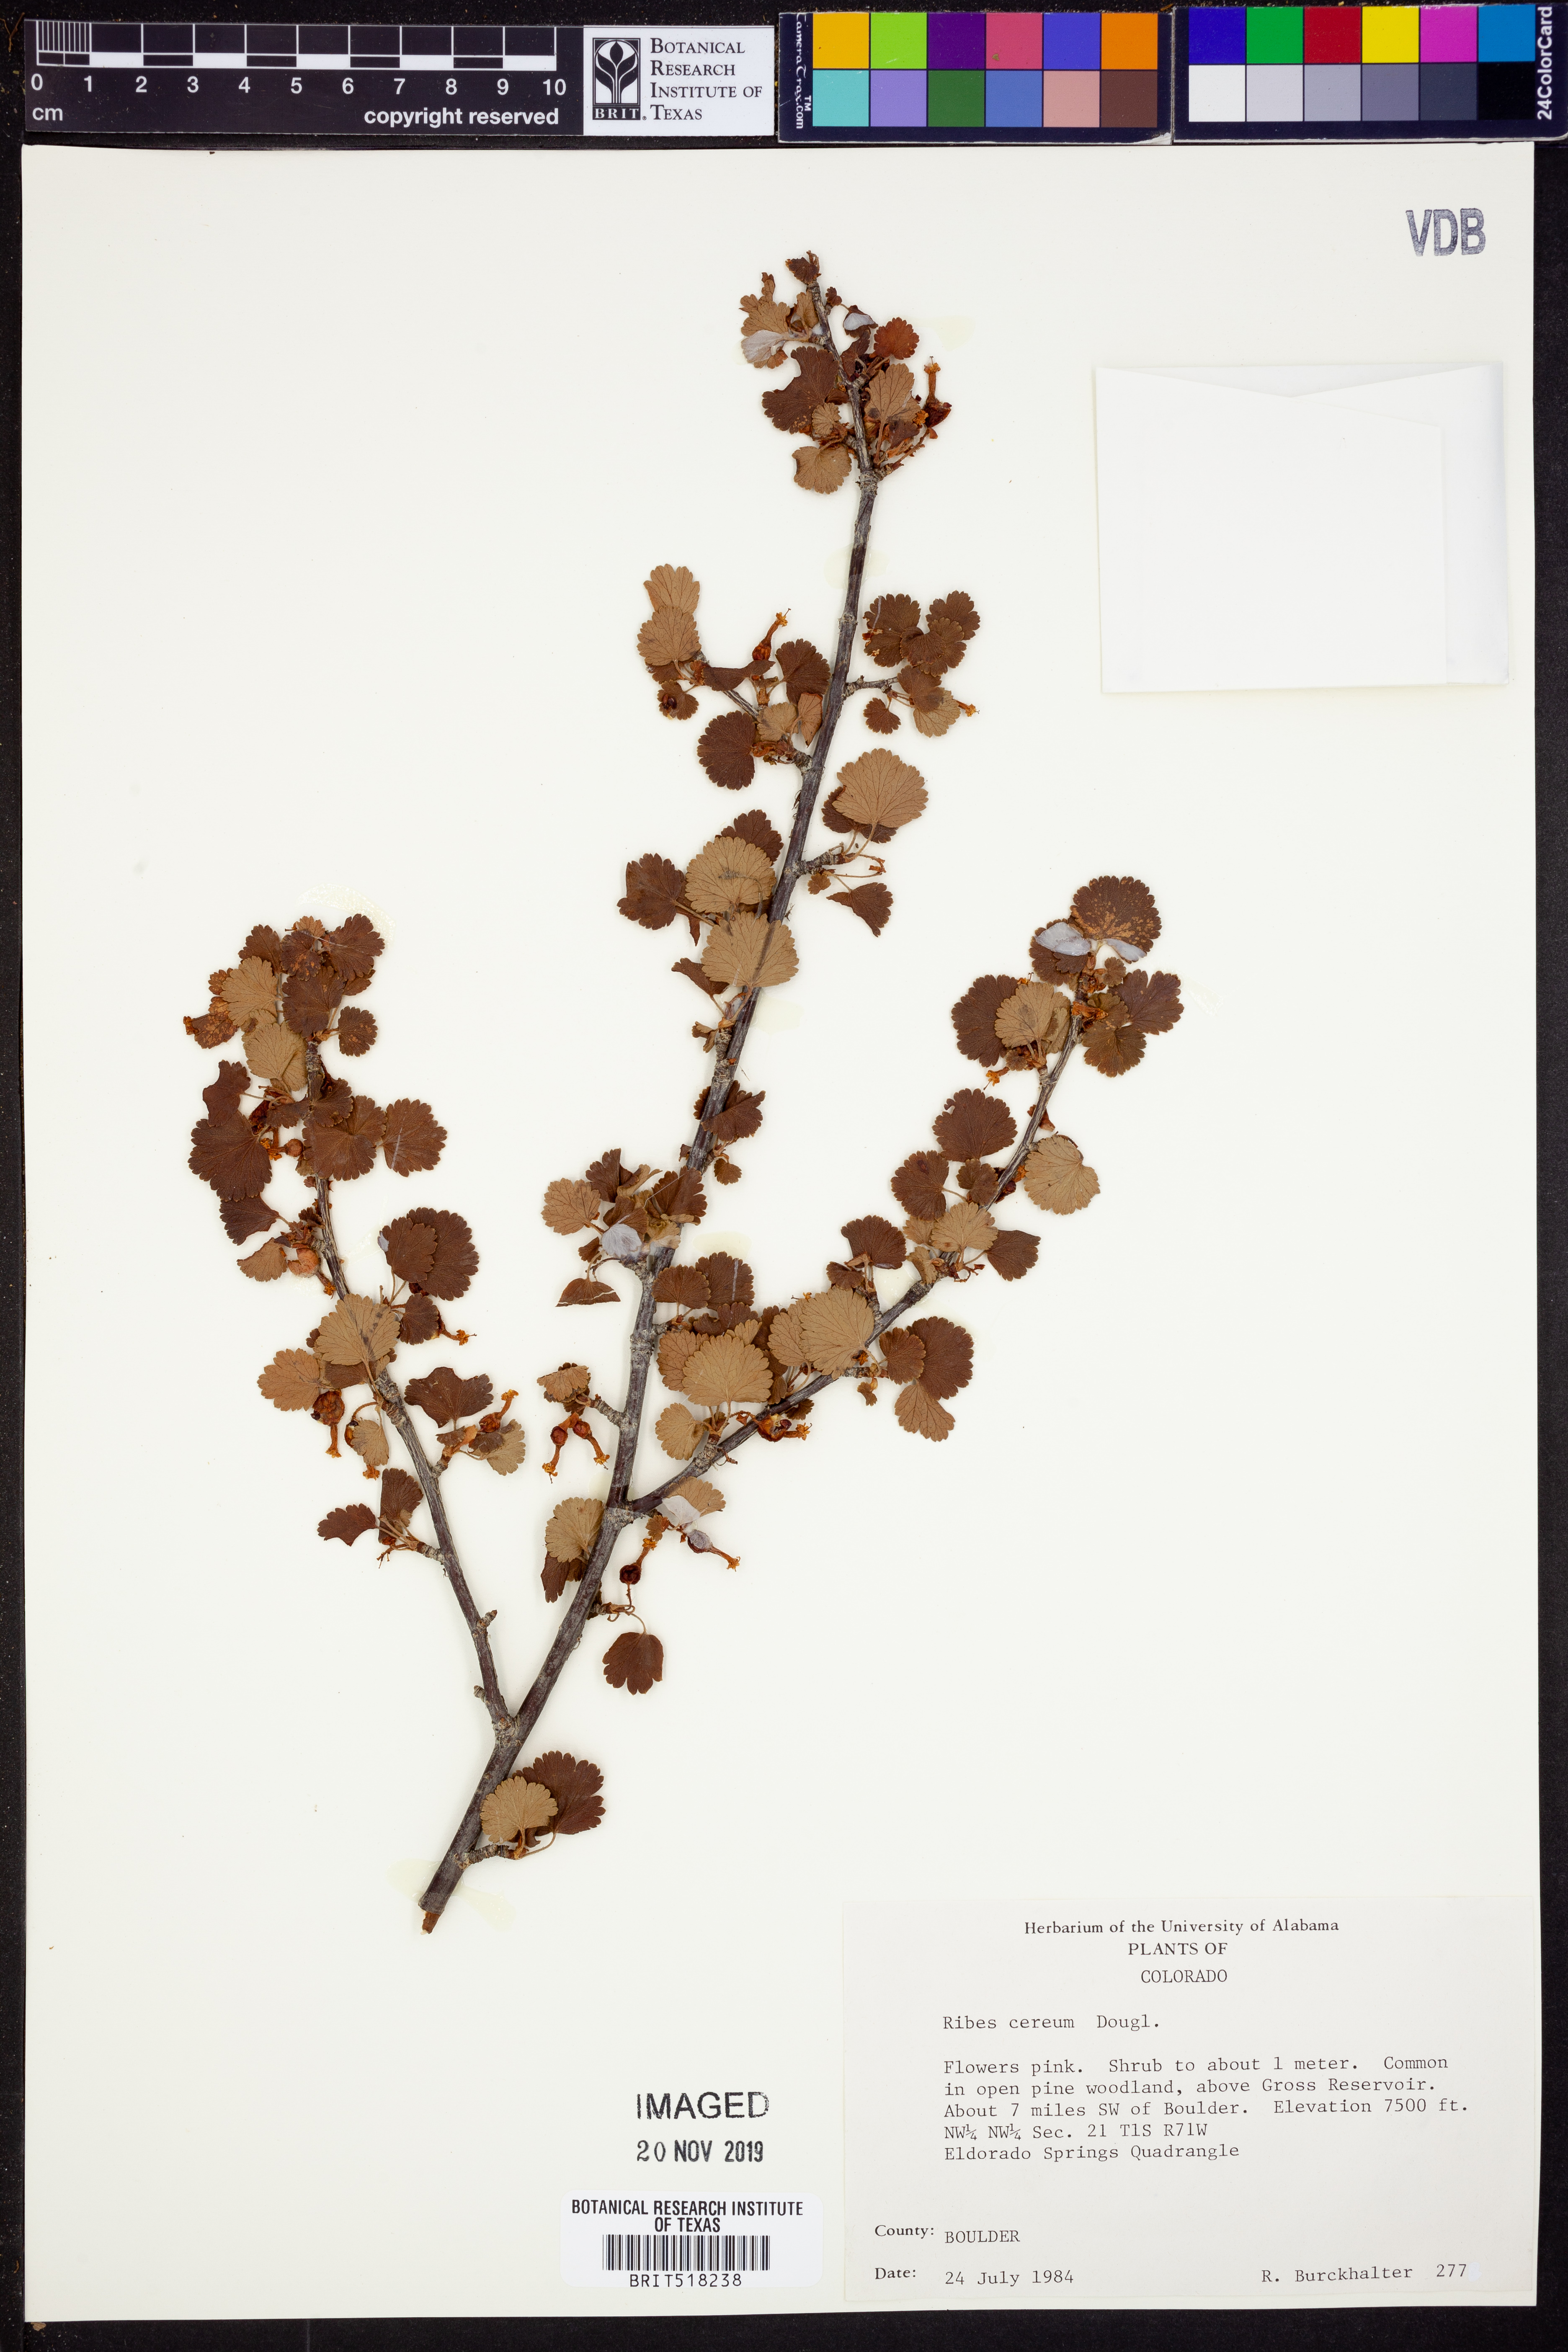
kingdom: Plantae
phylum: Tracheophyta
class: Magnoliopsida
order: Saxifragales
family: Grossulariaceae
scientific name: Grossulariaceae
